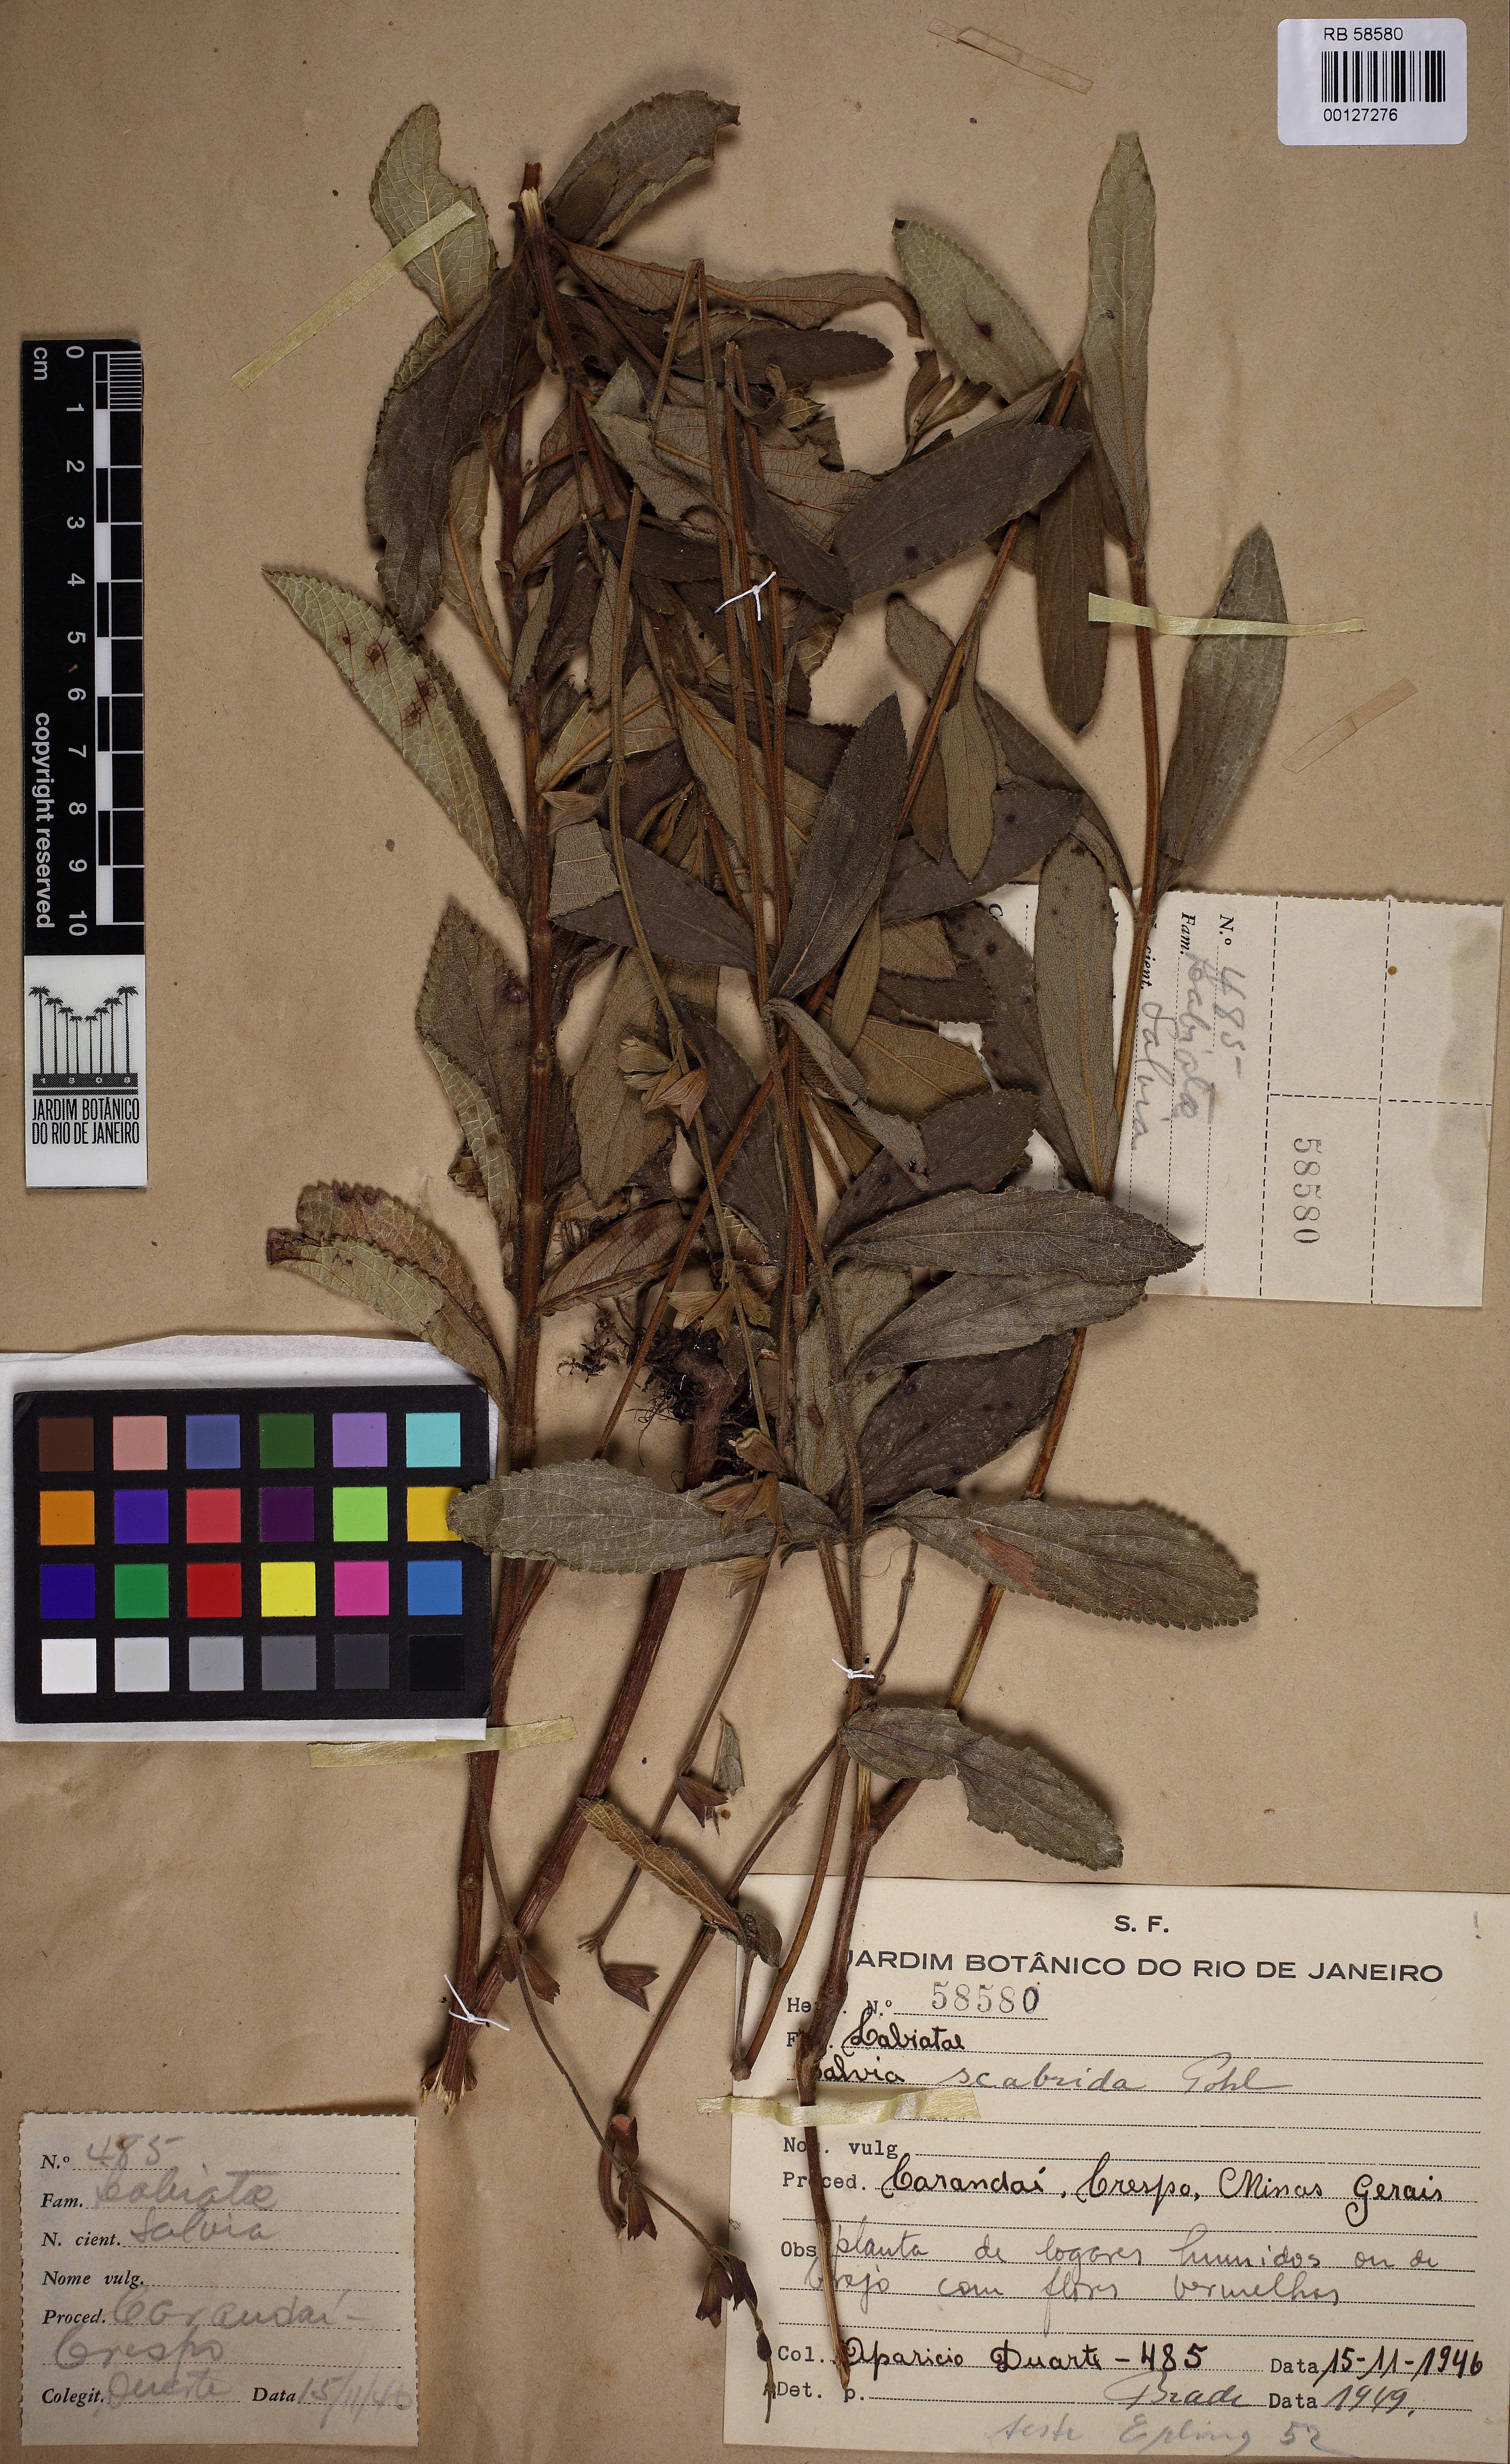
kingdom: Plantae
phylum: Tracheophyta
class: Magnoliopsida
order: Lamiales
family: Lamiaceae
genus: Salvia
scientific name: Salvia scabrida
